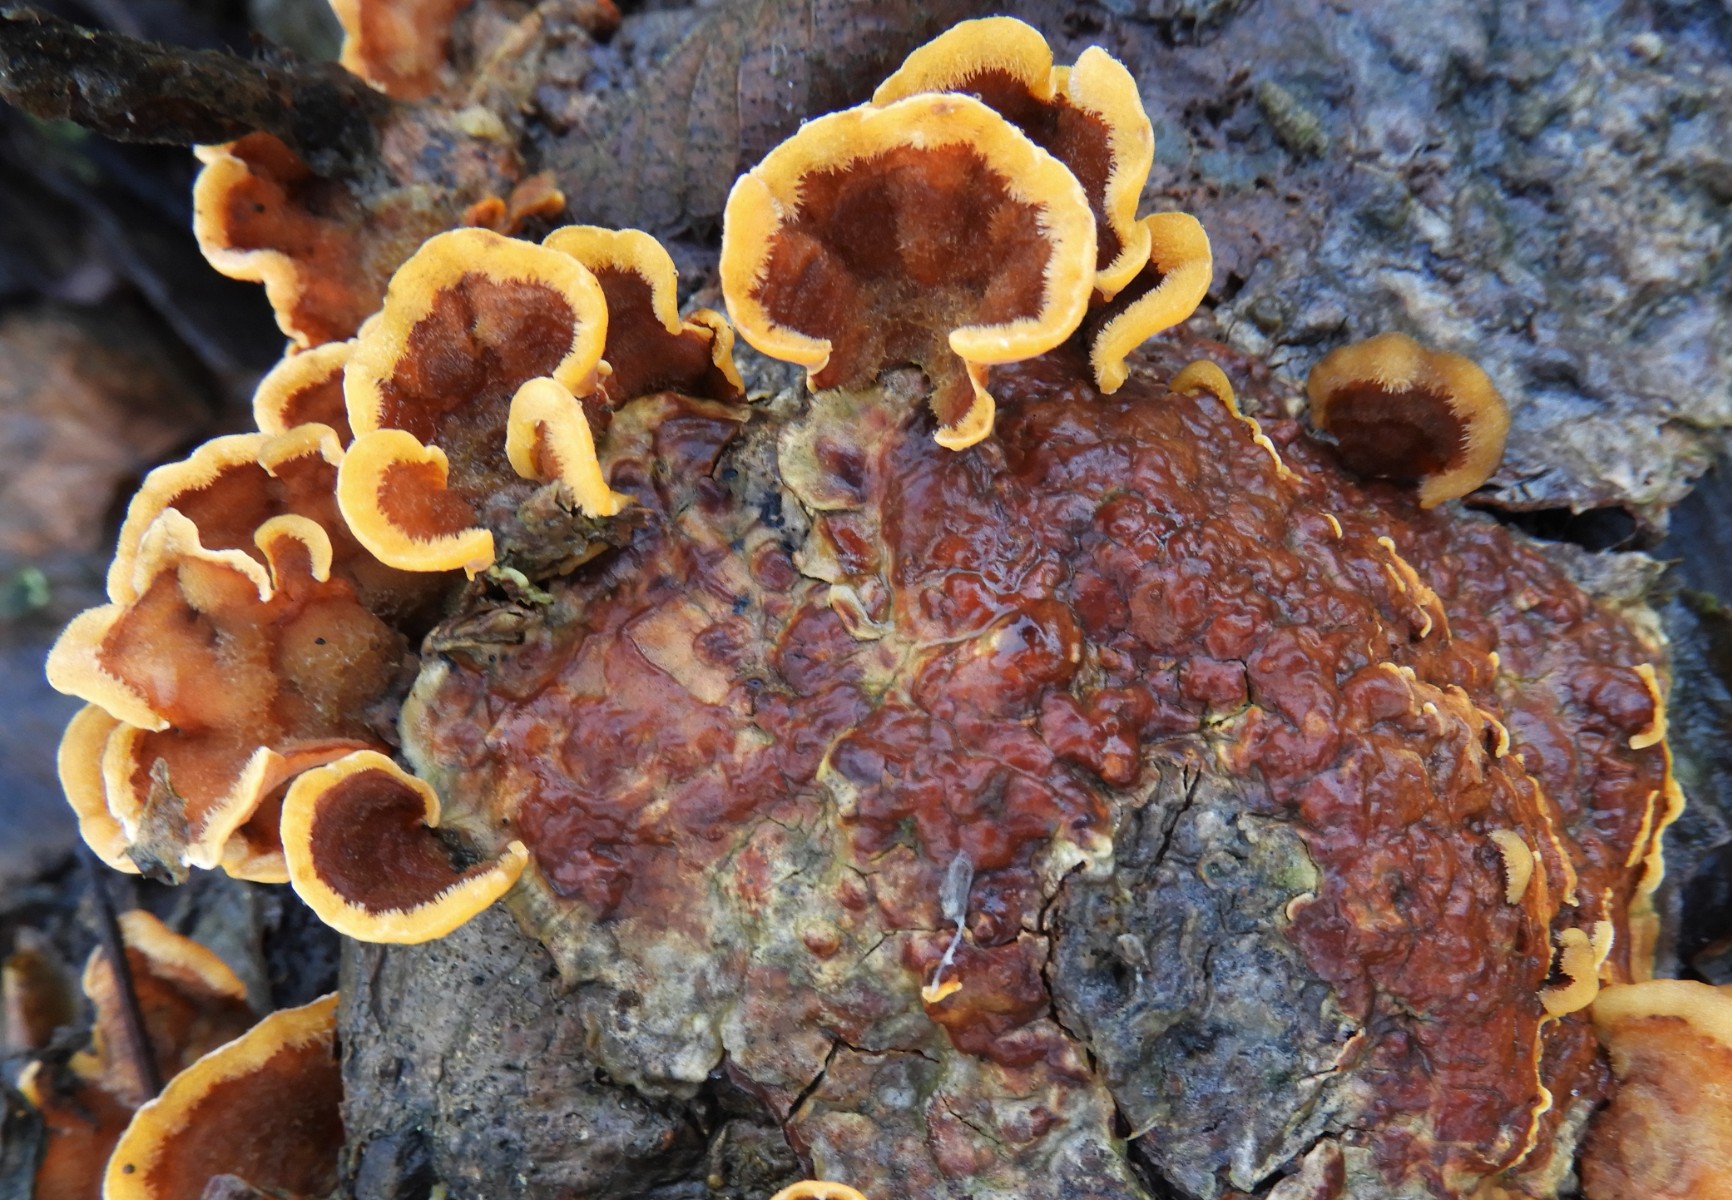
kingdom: Fungi
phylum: Basidiomycota
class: Agaricomycetes
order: Russulales
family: Stereaceae
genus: Stereum
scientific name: Stereum hirsutum
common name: håret lædersvamp
